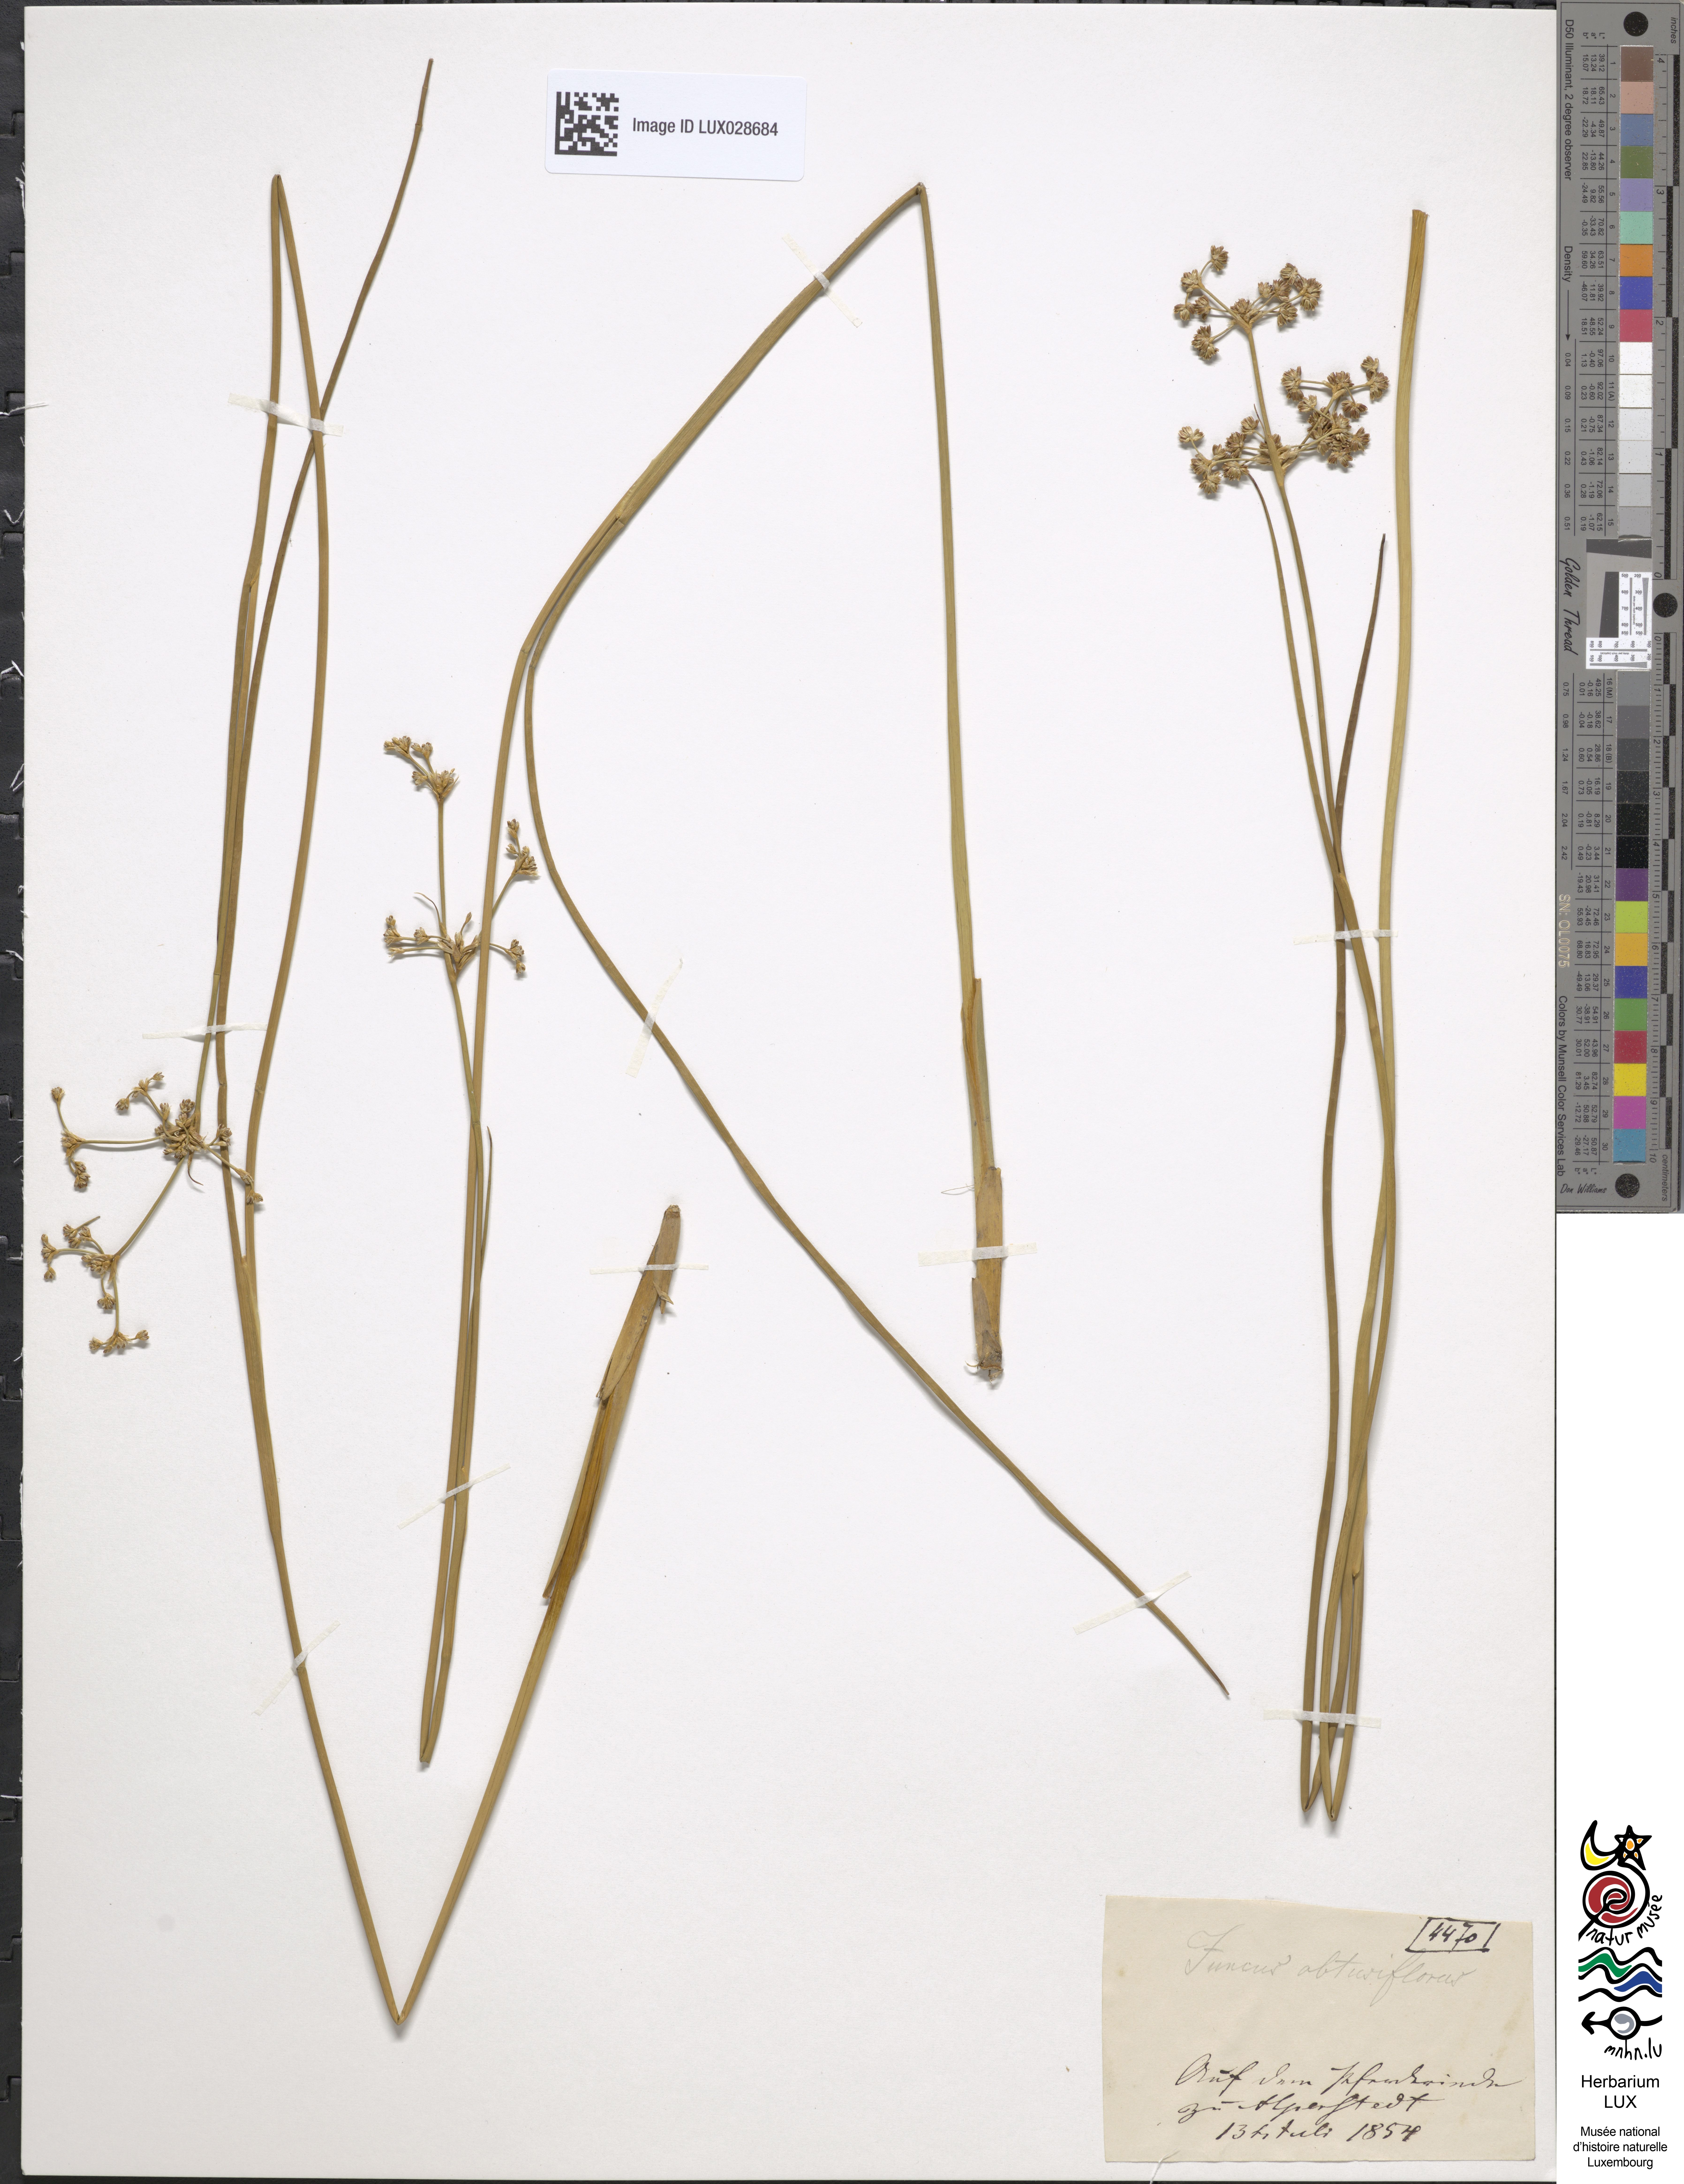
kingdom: Plantae
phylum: Tracheophyta
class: Liliopsida
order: Poales
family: Juncaceae
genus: Juncus
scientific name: Juncus subnodulosus
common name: Blunt-flowered rush
